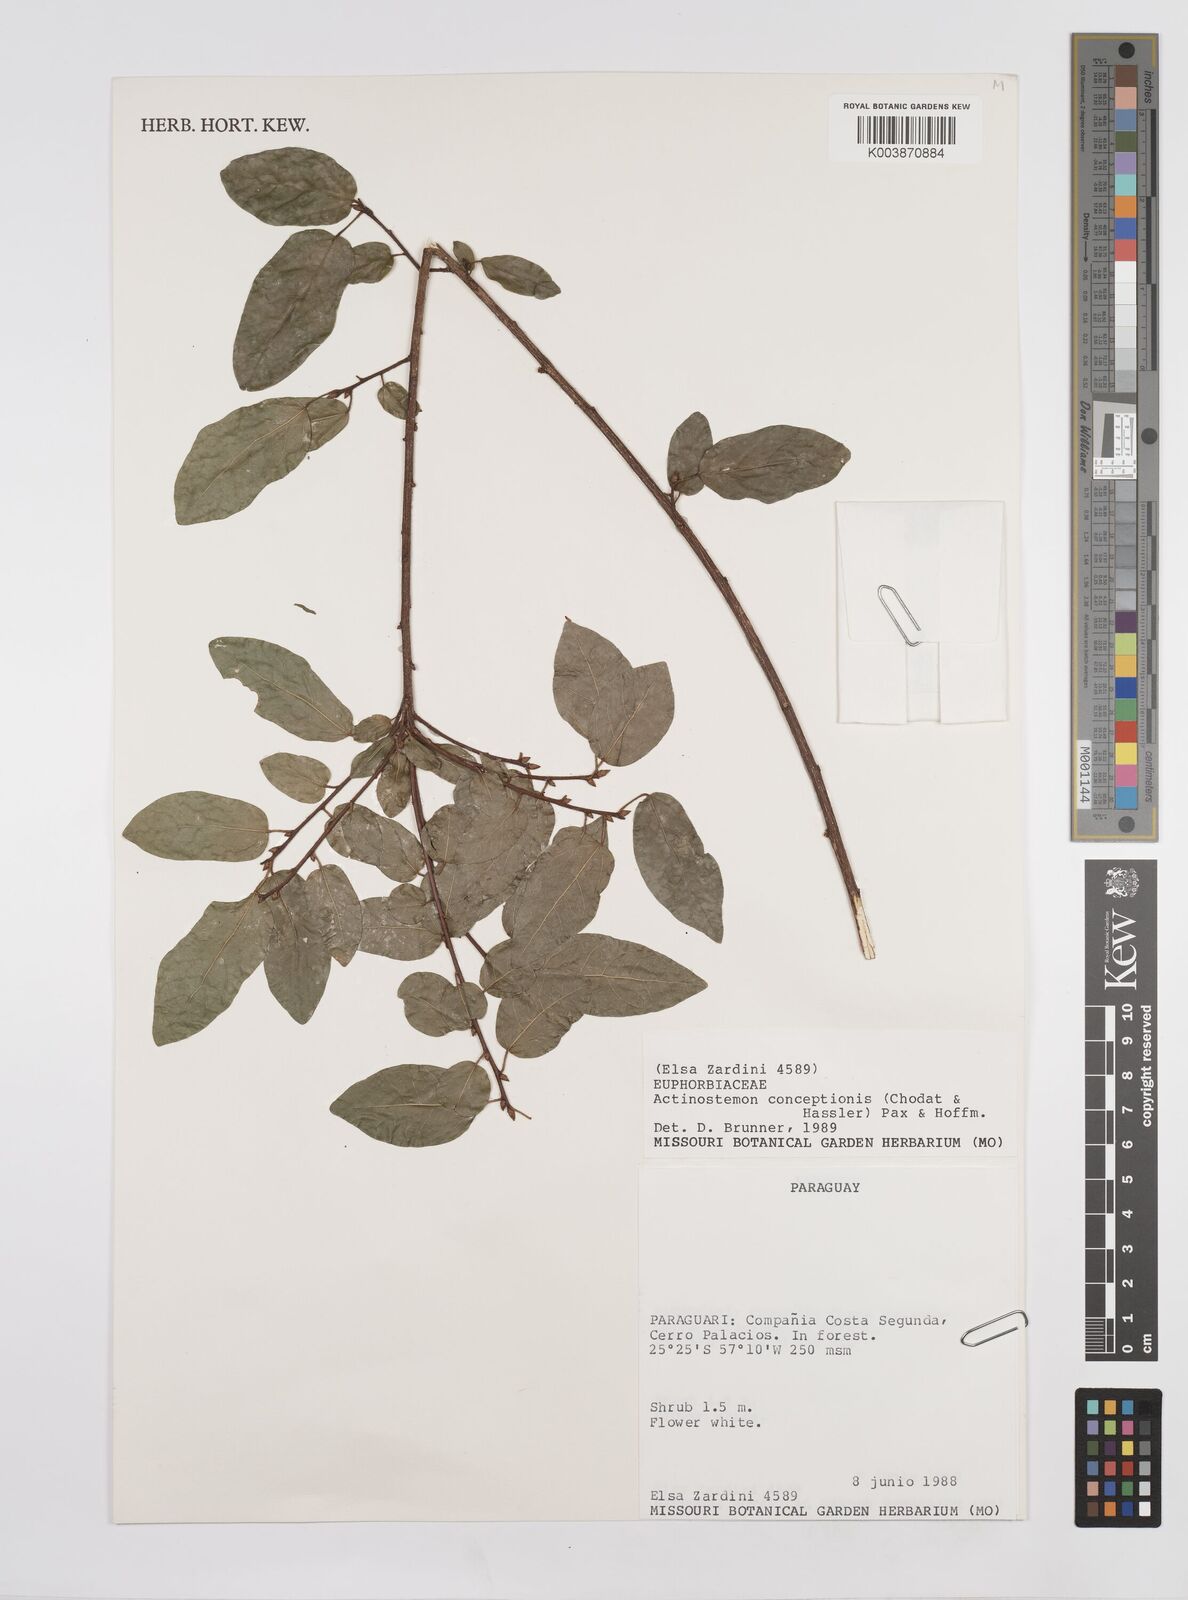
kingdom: Plantae
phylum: Tracheophyta
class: Magnoliopsida
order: Malpighiales
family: Euphorbiaceae
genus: Actinostemon
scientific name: Actinostemon concepcionis
